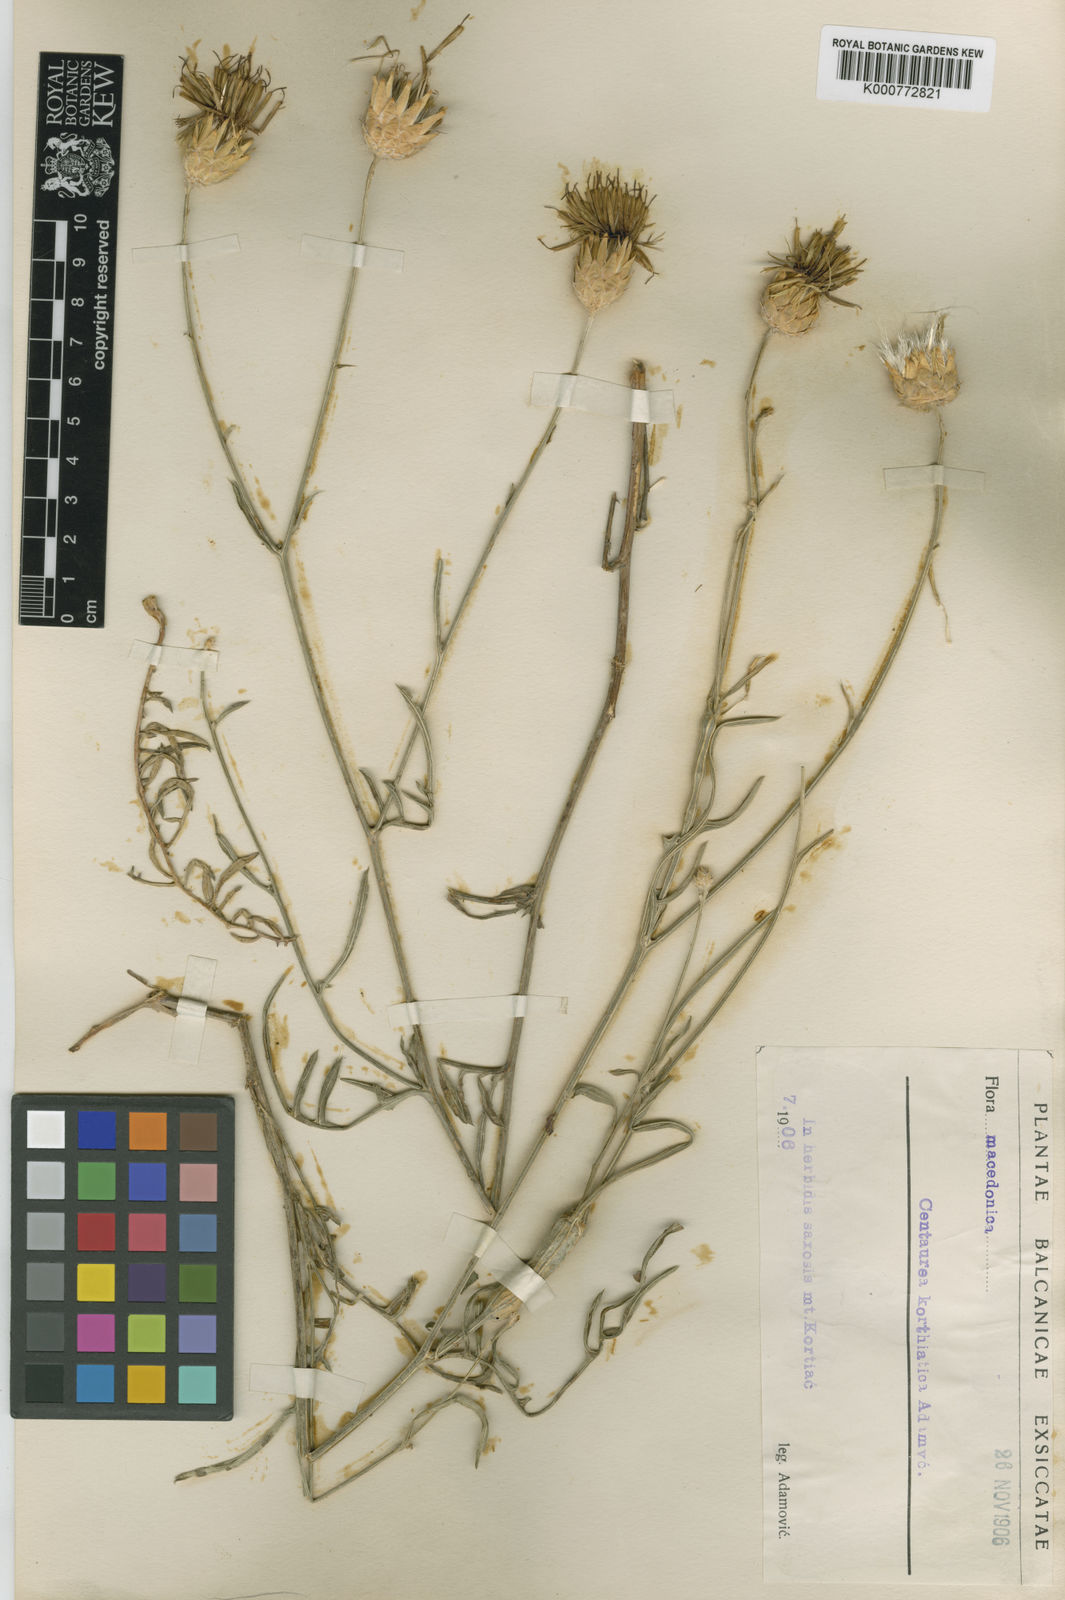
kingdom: Plantae
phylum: Tracheophyta
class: Magnoliopsida
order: Asterales
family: Asteraceae
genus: Centaurea
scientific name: Centaurea macedonica
